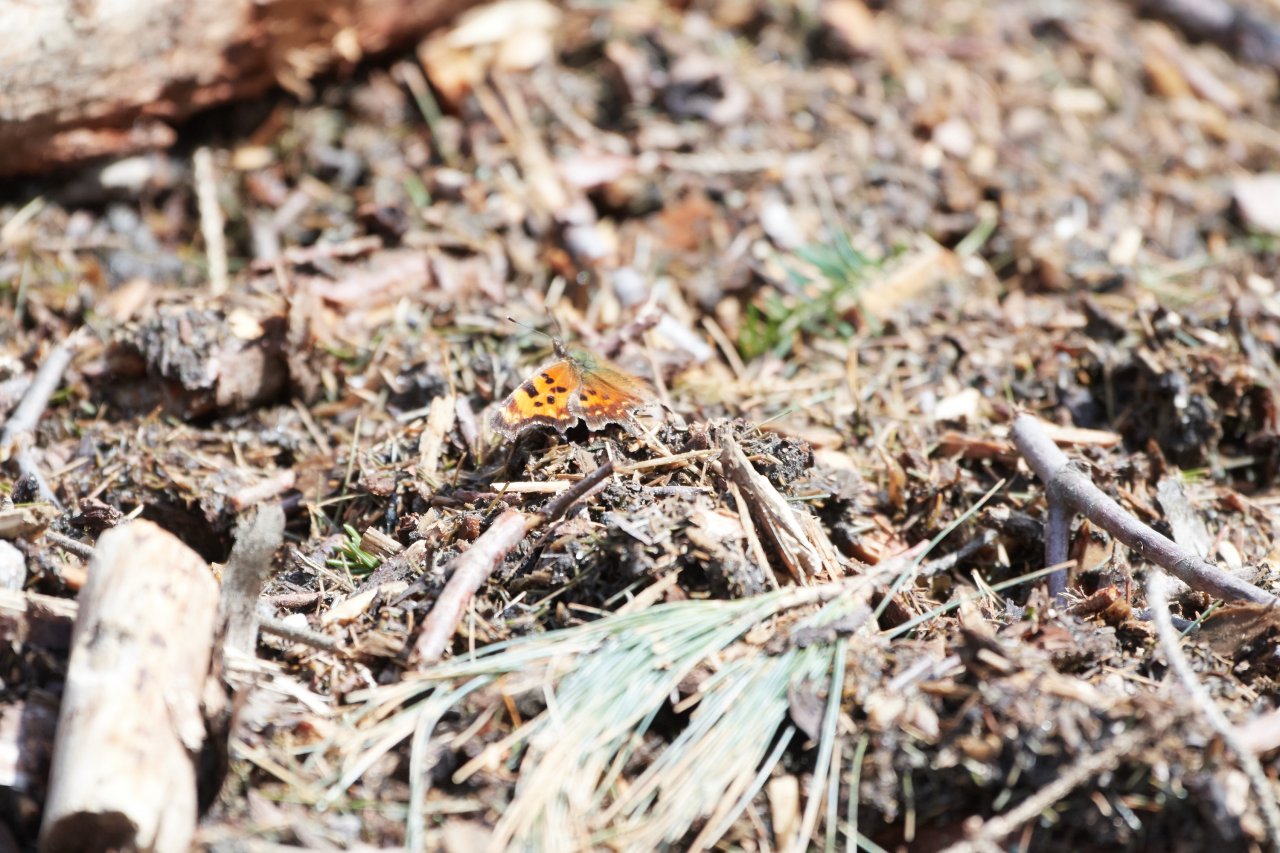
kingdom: Animalia
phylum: Arthropoda
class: Insecta
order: Lepidoptera
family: Nymphalidae
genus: Polygonia
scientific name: Polygonia faunus
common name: Green Comma
